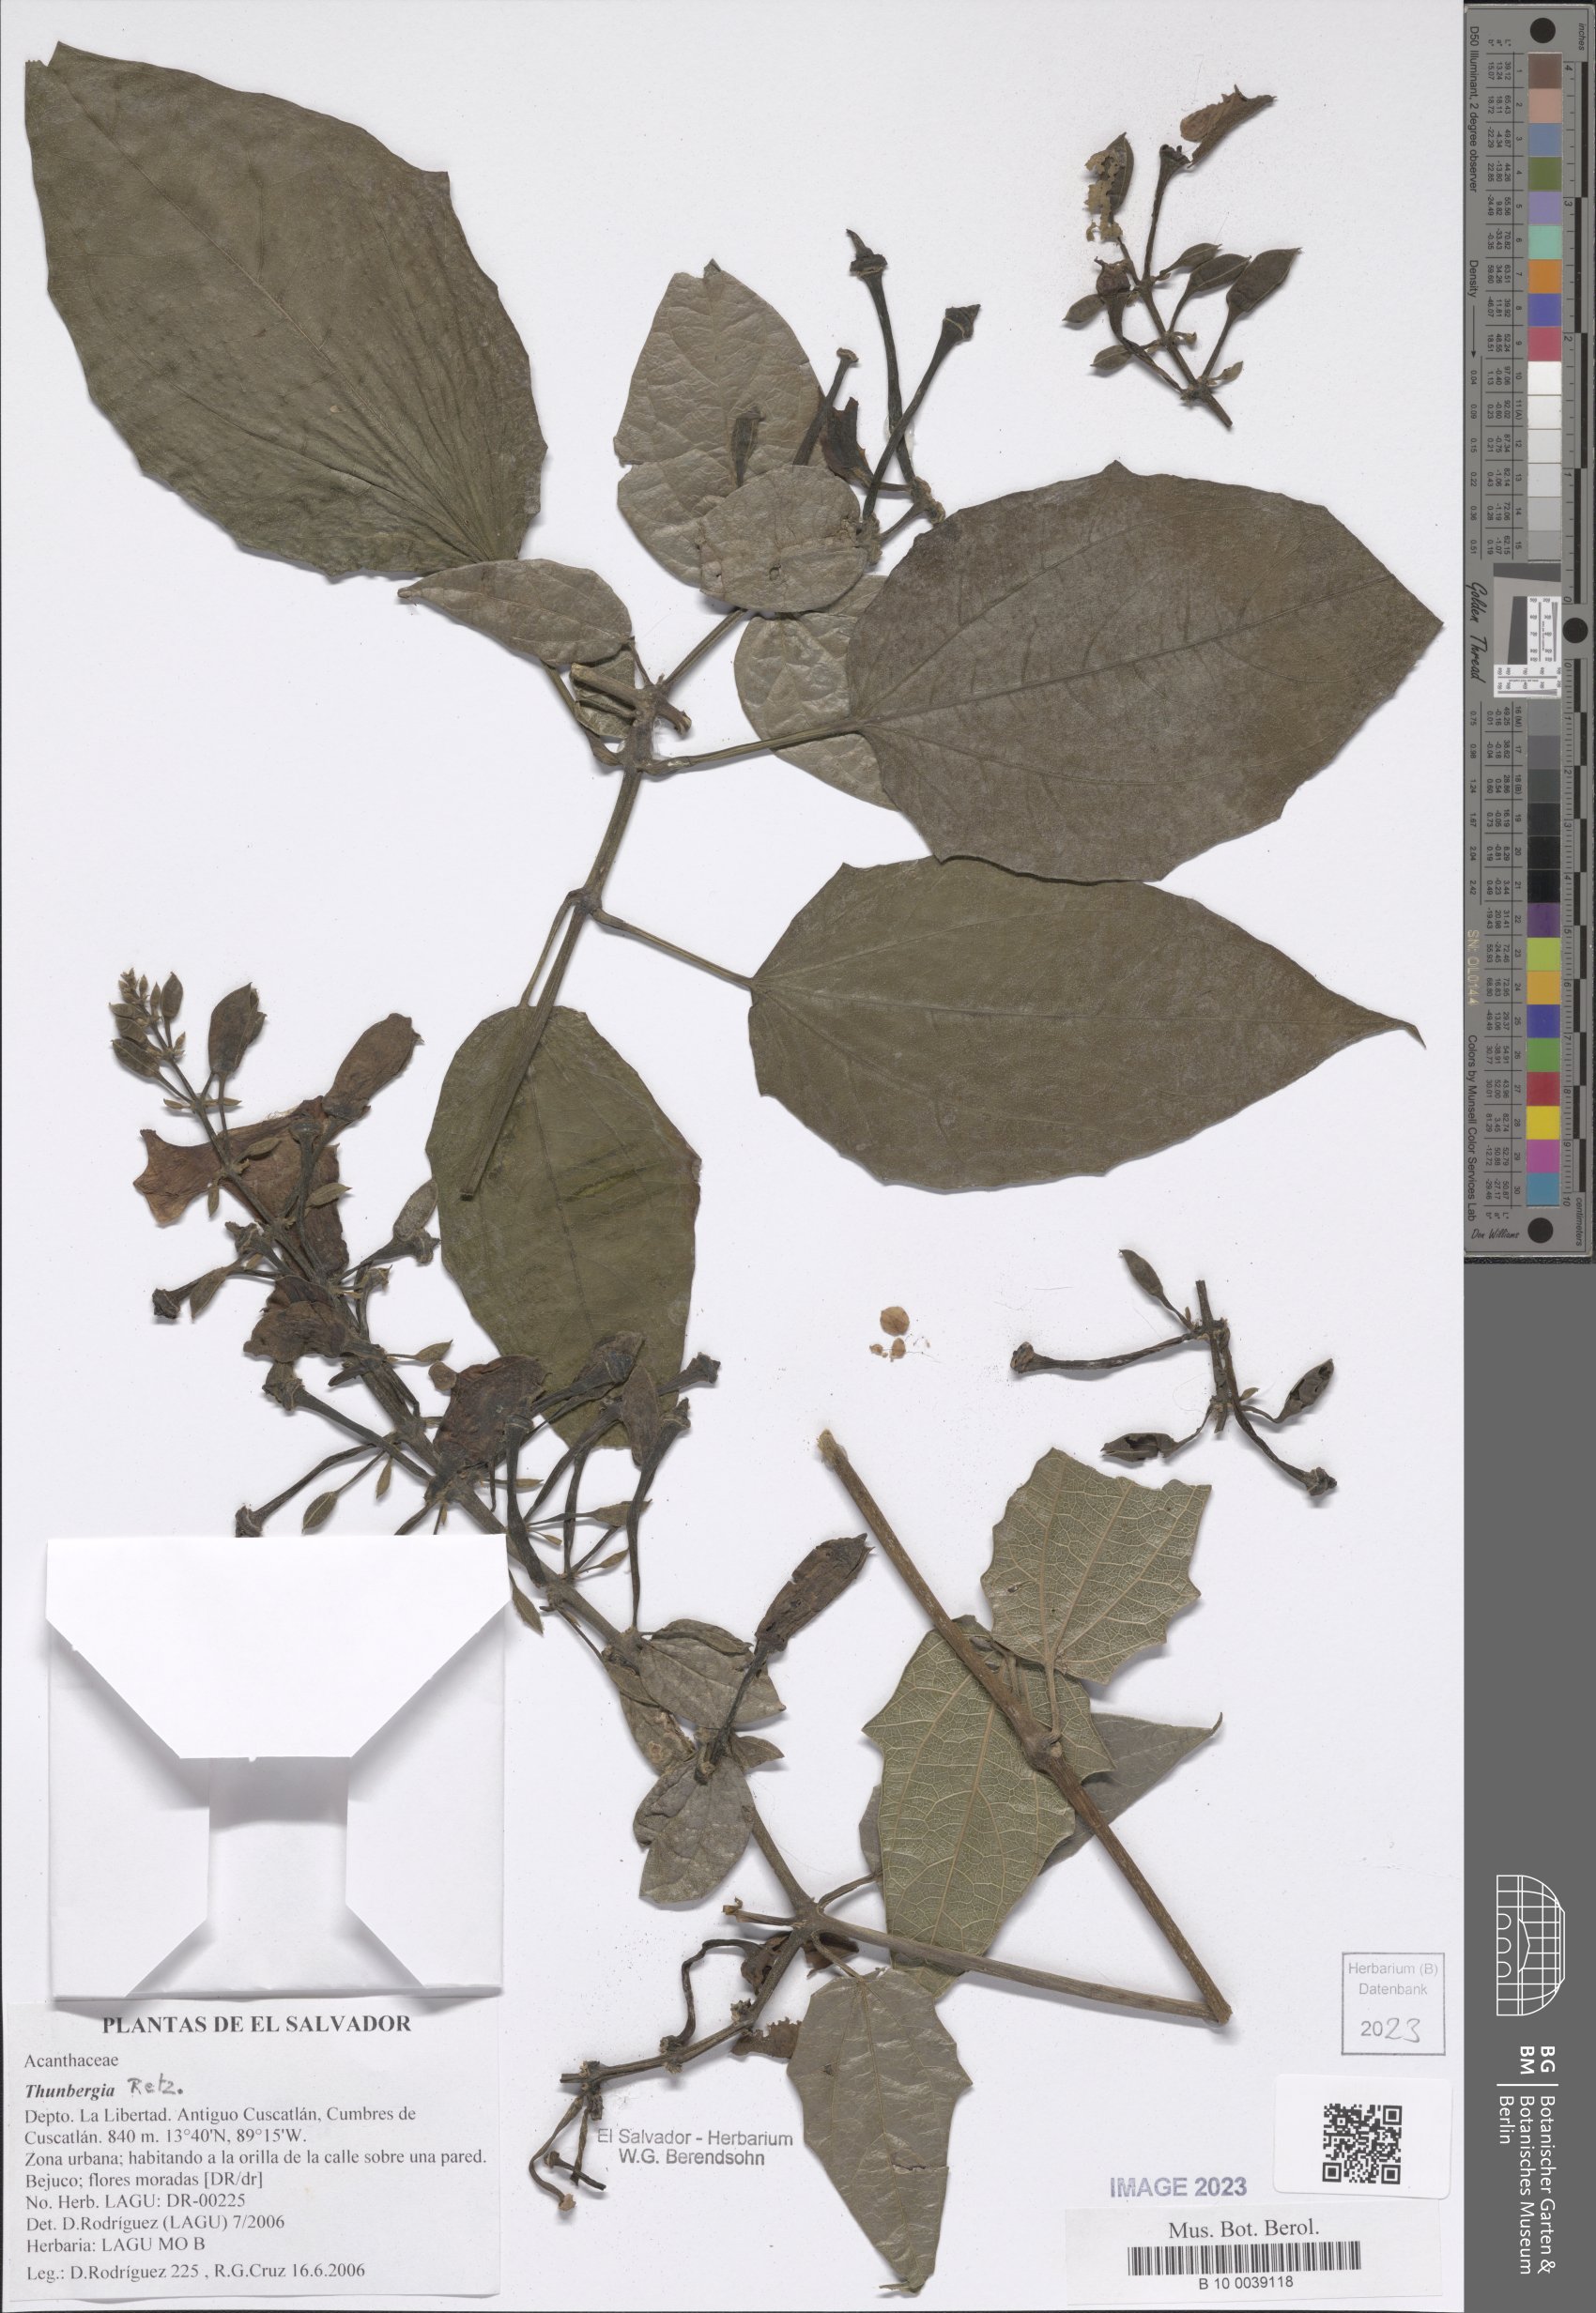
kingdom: Plantae
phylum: Tracheophyta
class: Magnoliopsida
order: Lamiales
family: Acanthaceae
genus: Thunbergia
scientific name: Thunbergia grandiflora
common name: Bengal trumpet
